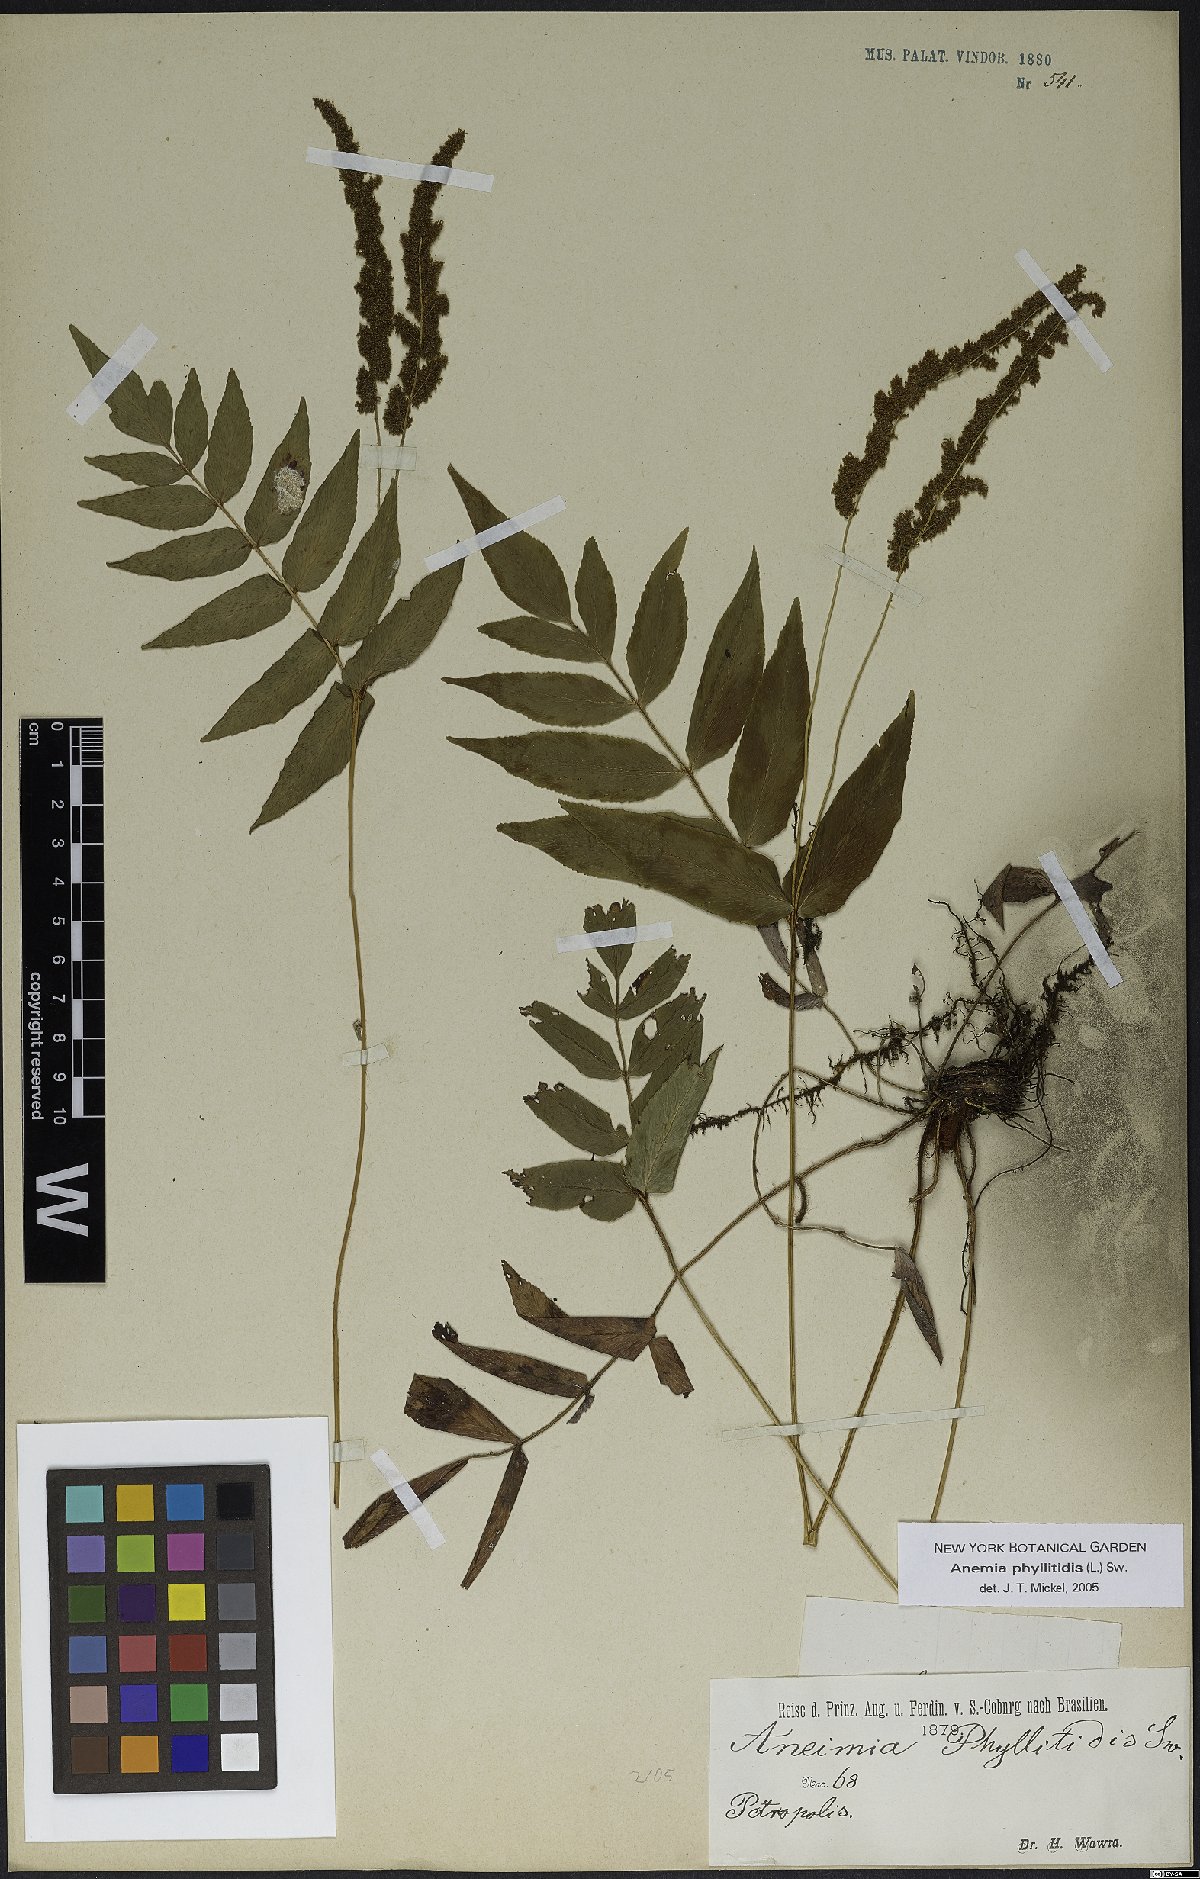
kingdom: Plantae
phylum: Tracheophyta
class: Polypodiopsida
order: Schizaeales
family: Anemiaceae
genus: Anemia
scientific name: Anemia phyllitidis
